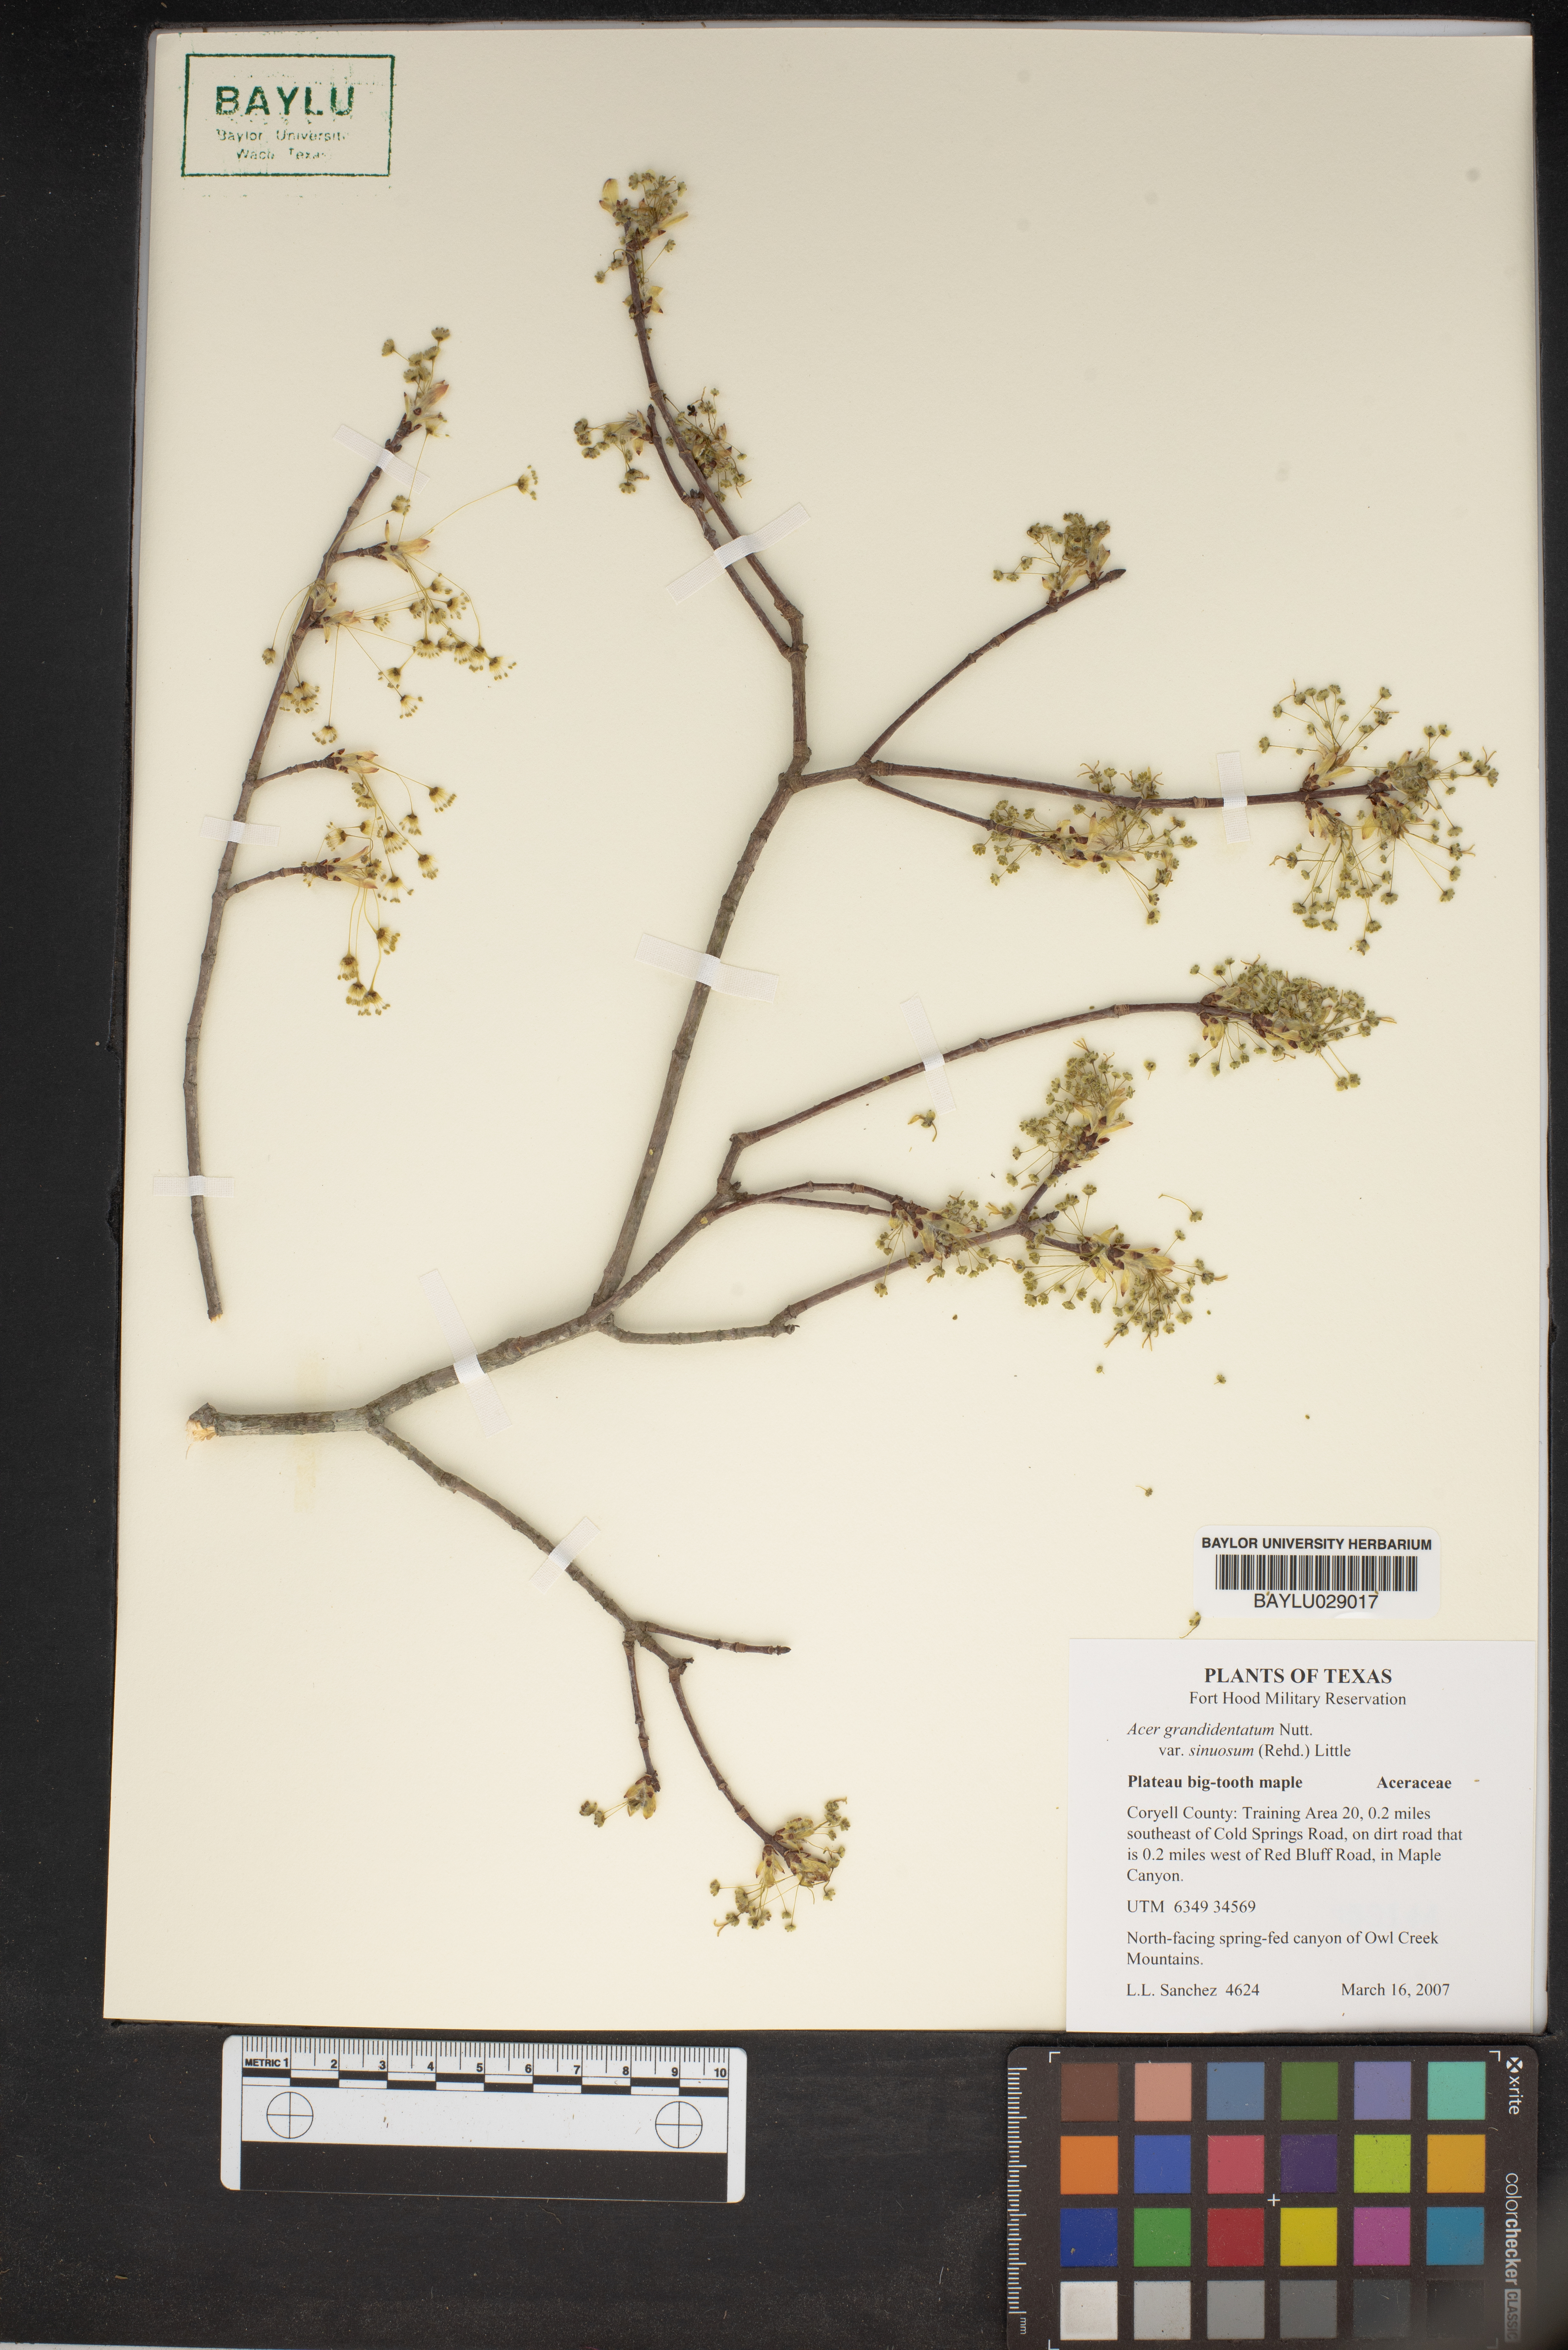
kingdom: Plantae
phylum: Tracheophyta
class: Magnoliopsida
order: Sapindales
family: Sapindaceae
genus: Acer
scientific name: Acer grandidentatum
